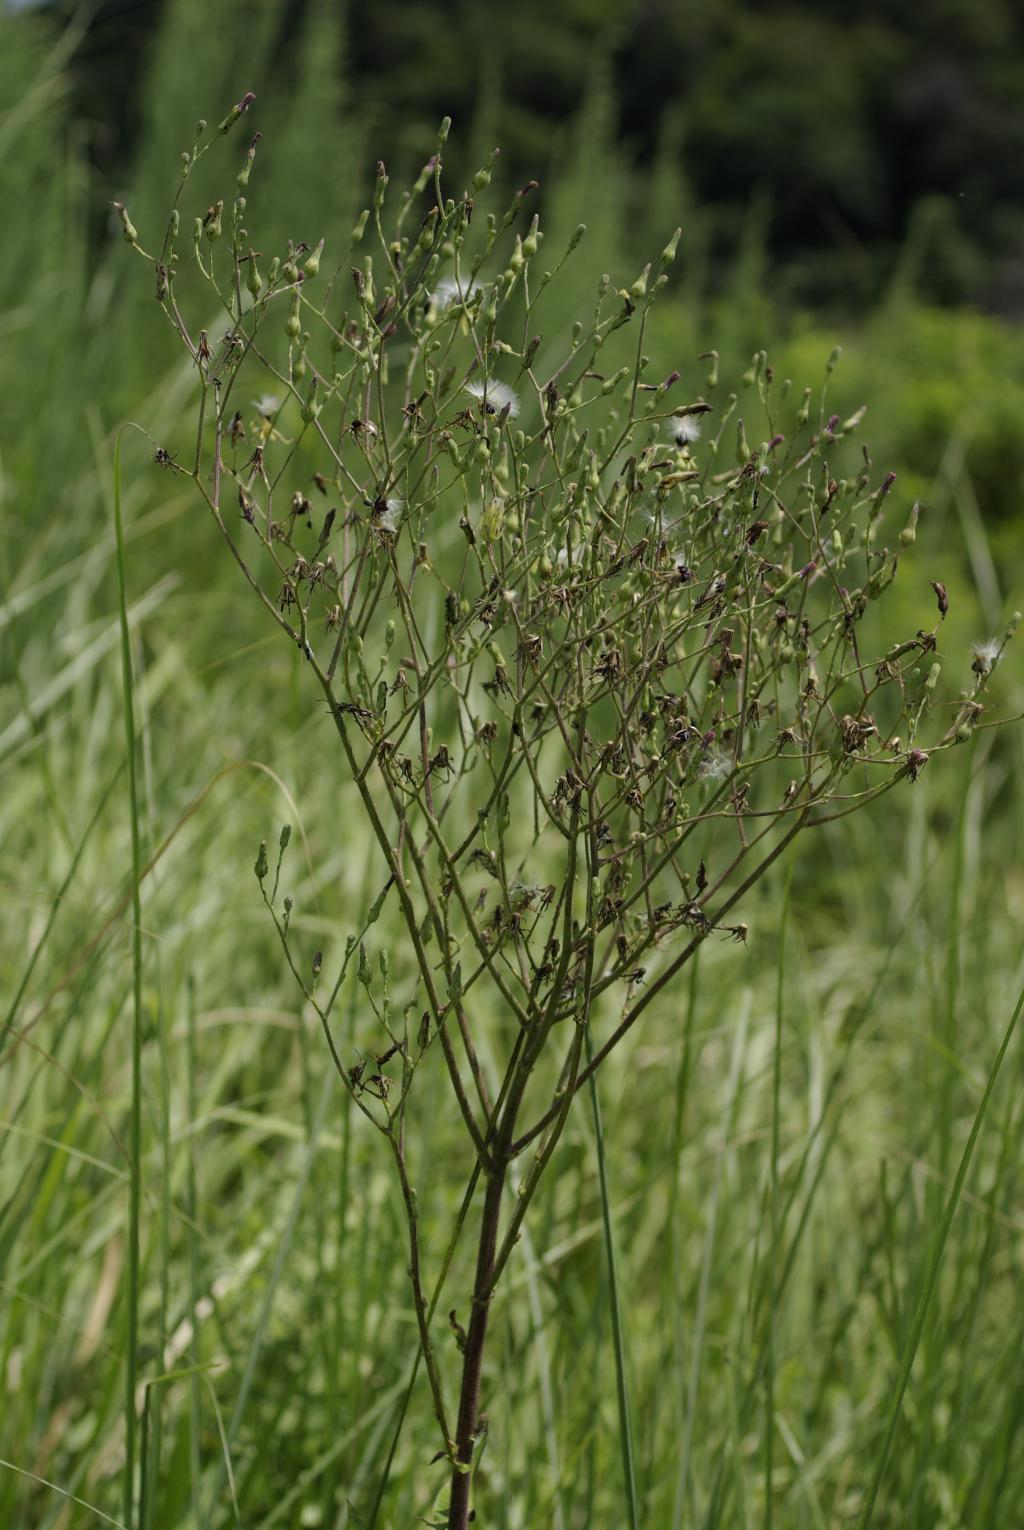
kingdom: Plantae
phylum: Tracheophyta
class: Magnoliopsida
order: Asterales
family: Asteraceae
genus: Lactuca
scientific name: Lactuca formosana
